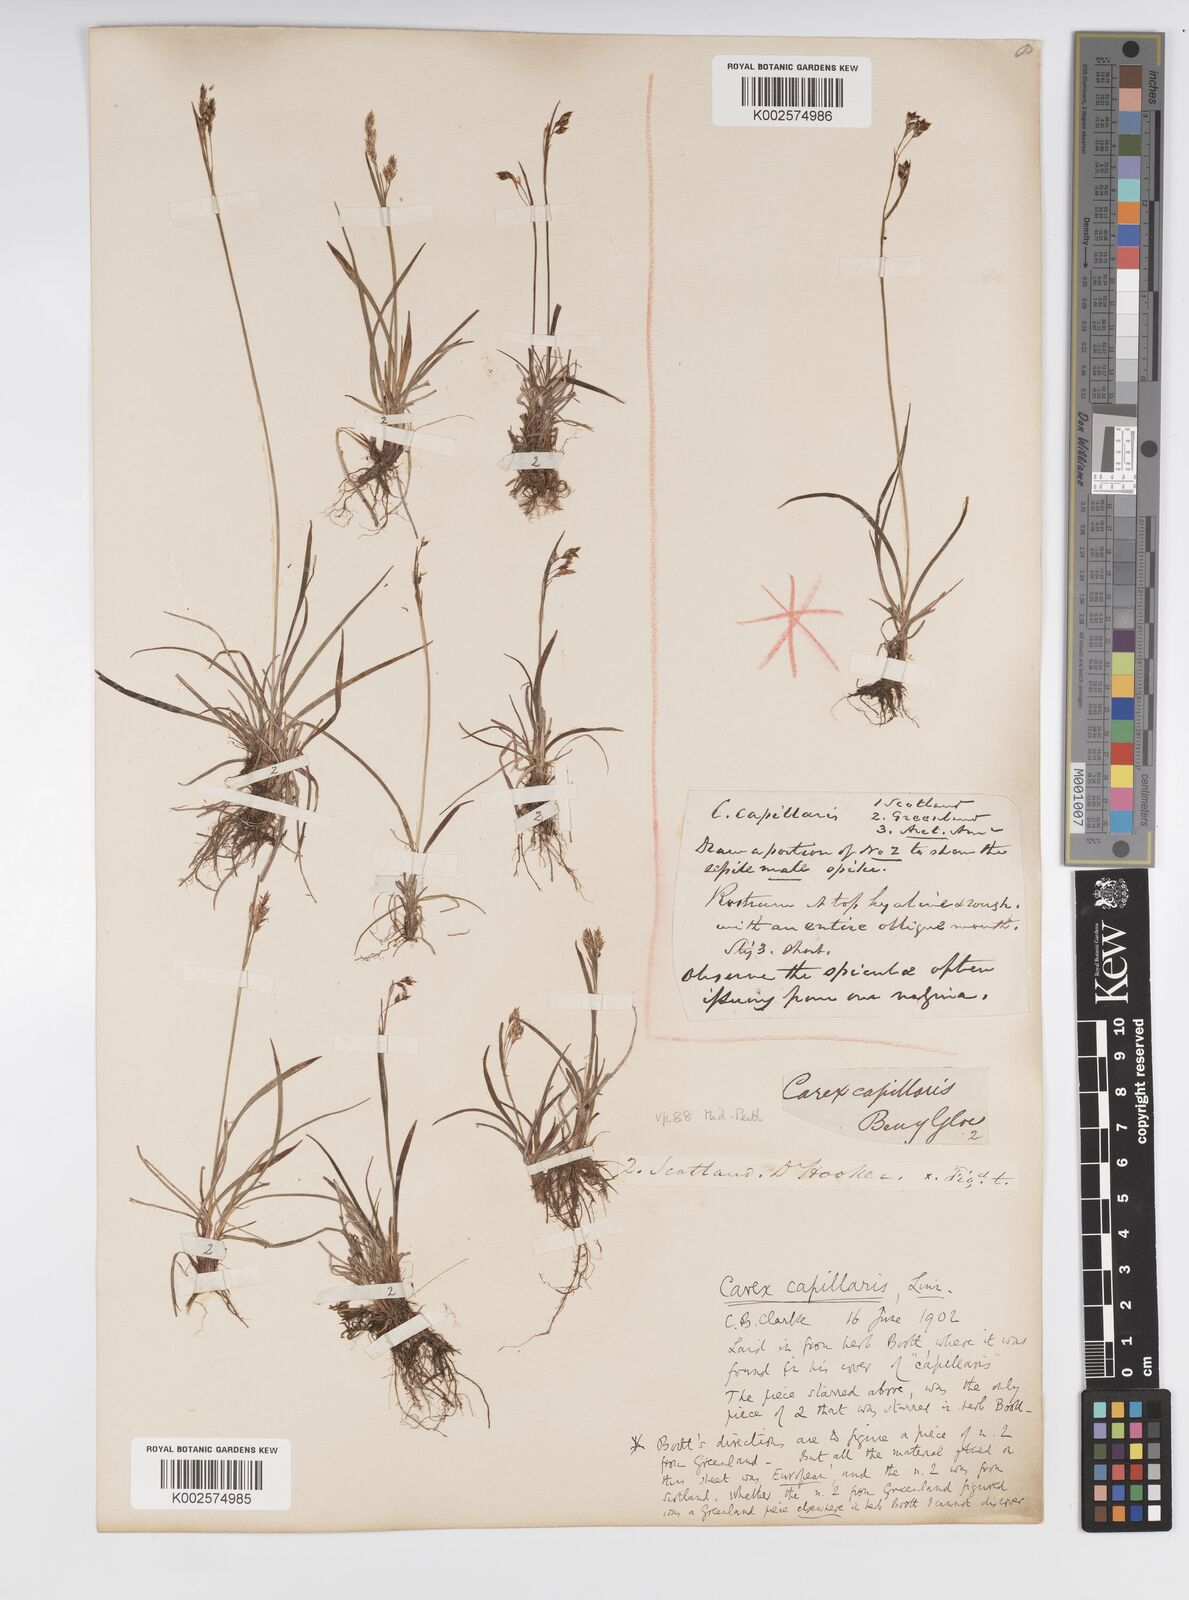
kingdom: Plantae
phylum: Tracheophyta
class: Liliopsida
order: Poales
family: Cyperaceae
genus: Carex
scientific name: Carex capillaris
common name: Hair sedge
